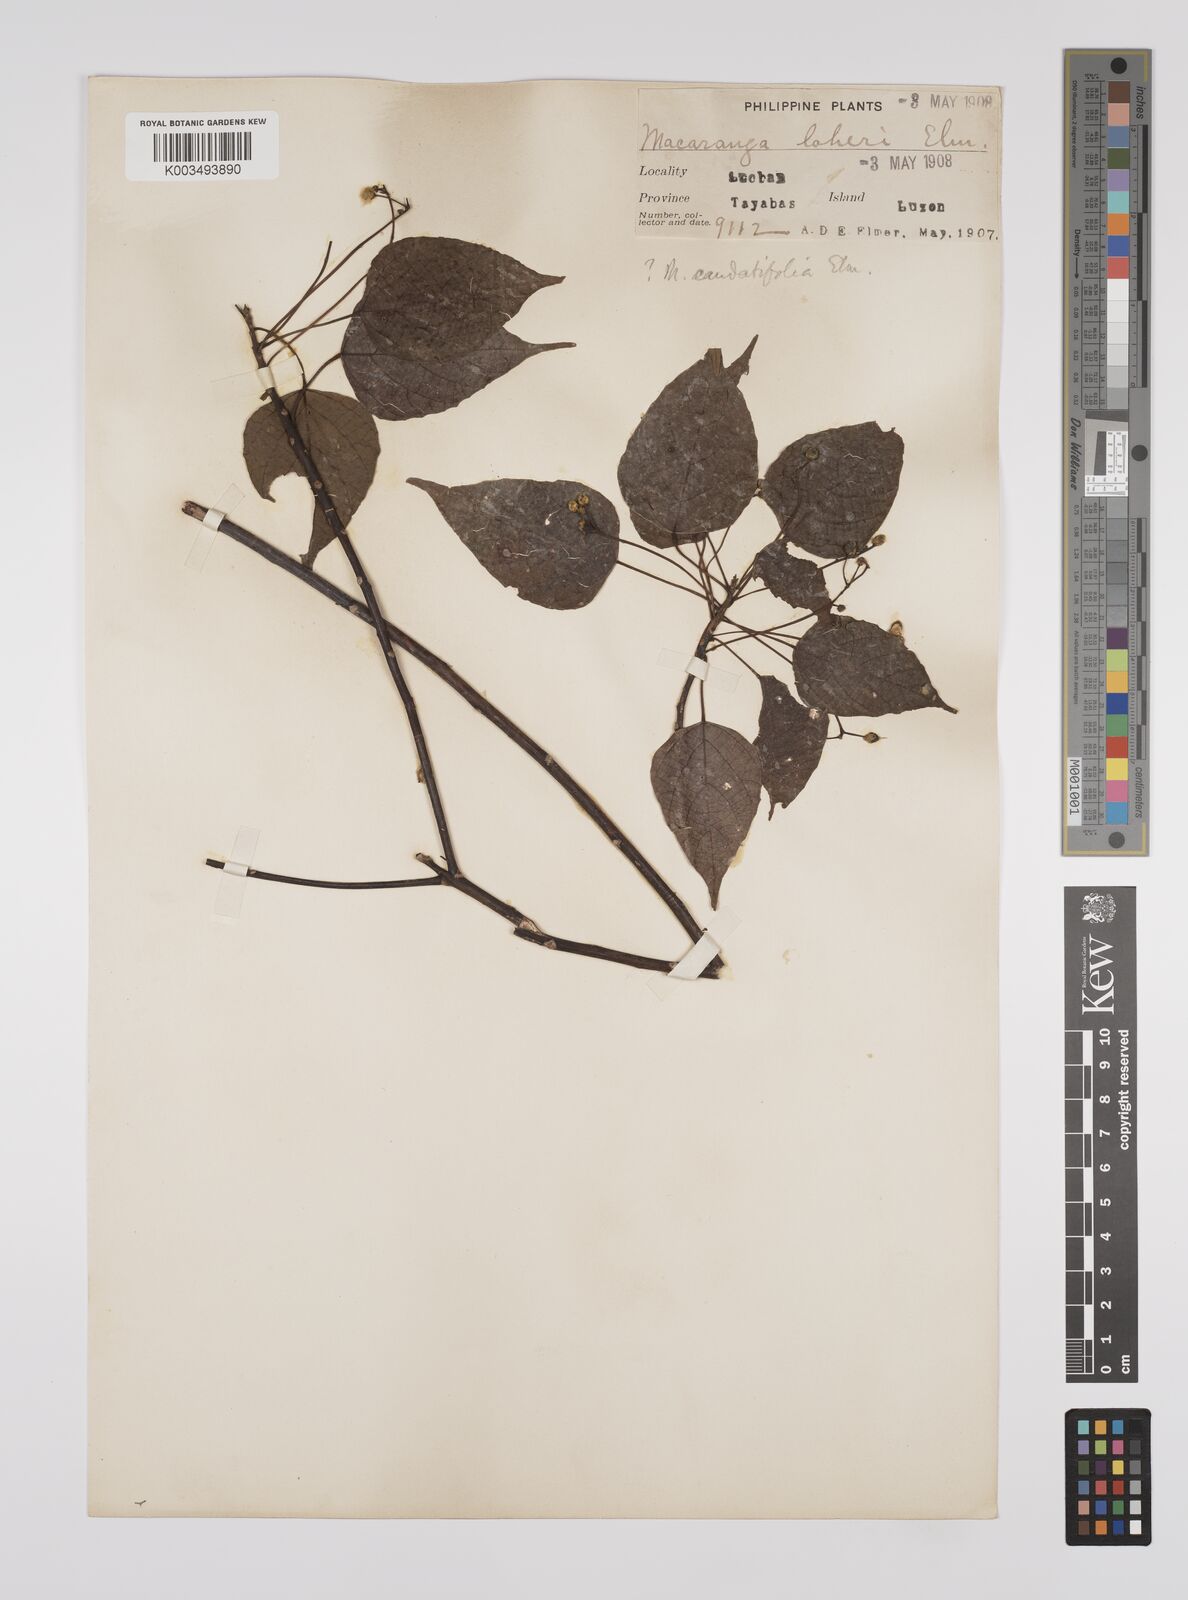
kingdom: Plantae
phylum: Tracheophyta
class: Magnoliopsida
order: Malpighiales
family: Euphorbiaceae
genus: Macaranga
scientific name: Macaranga caudatifolia
